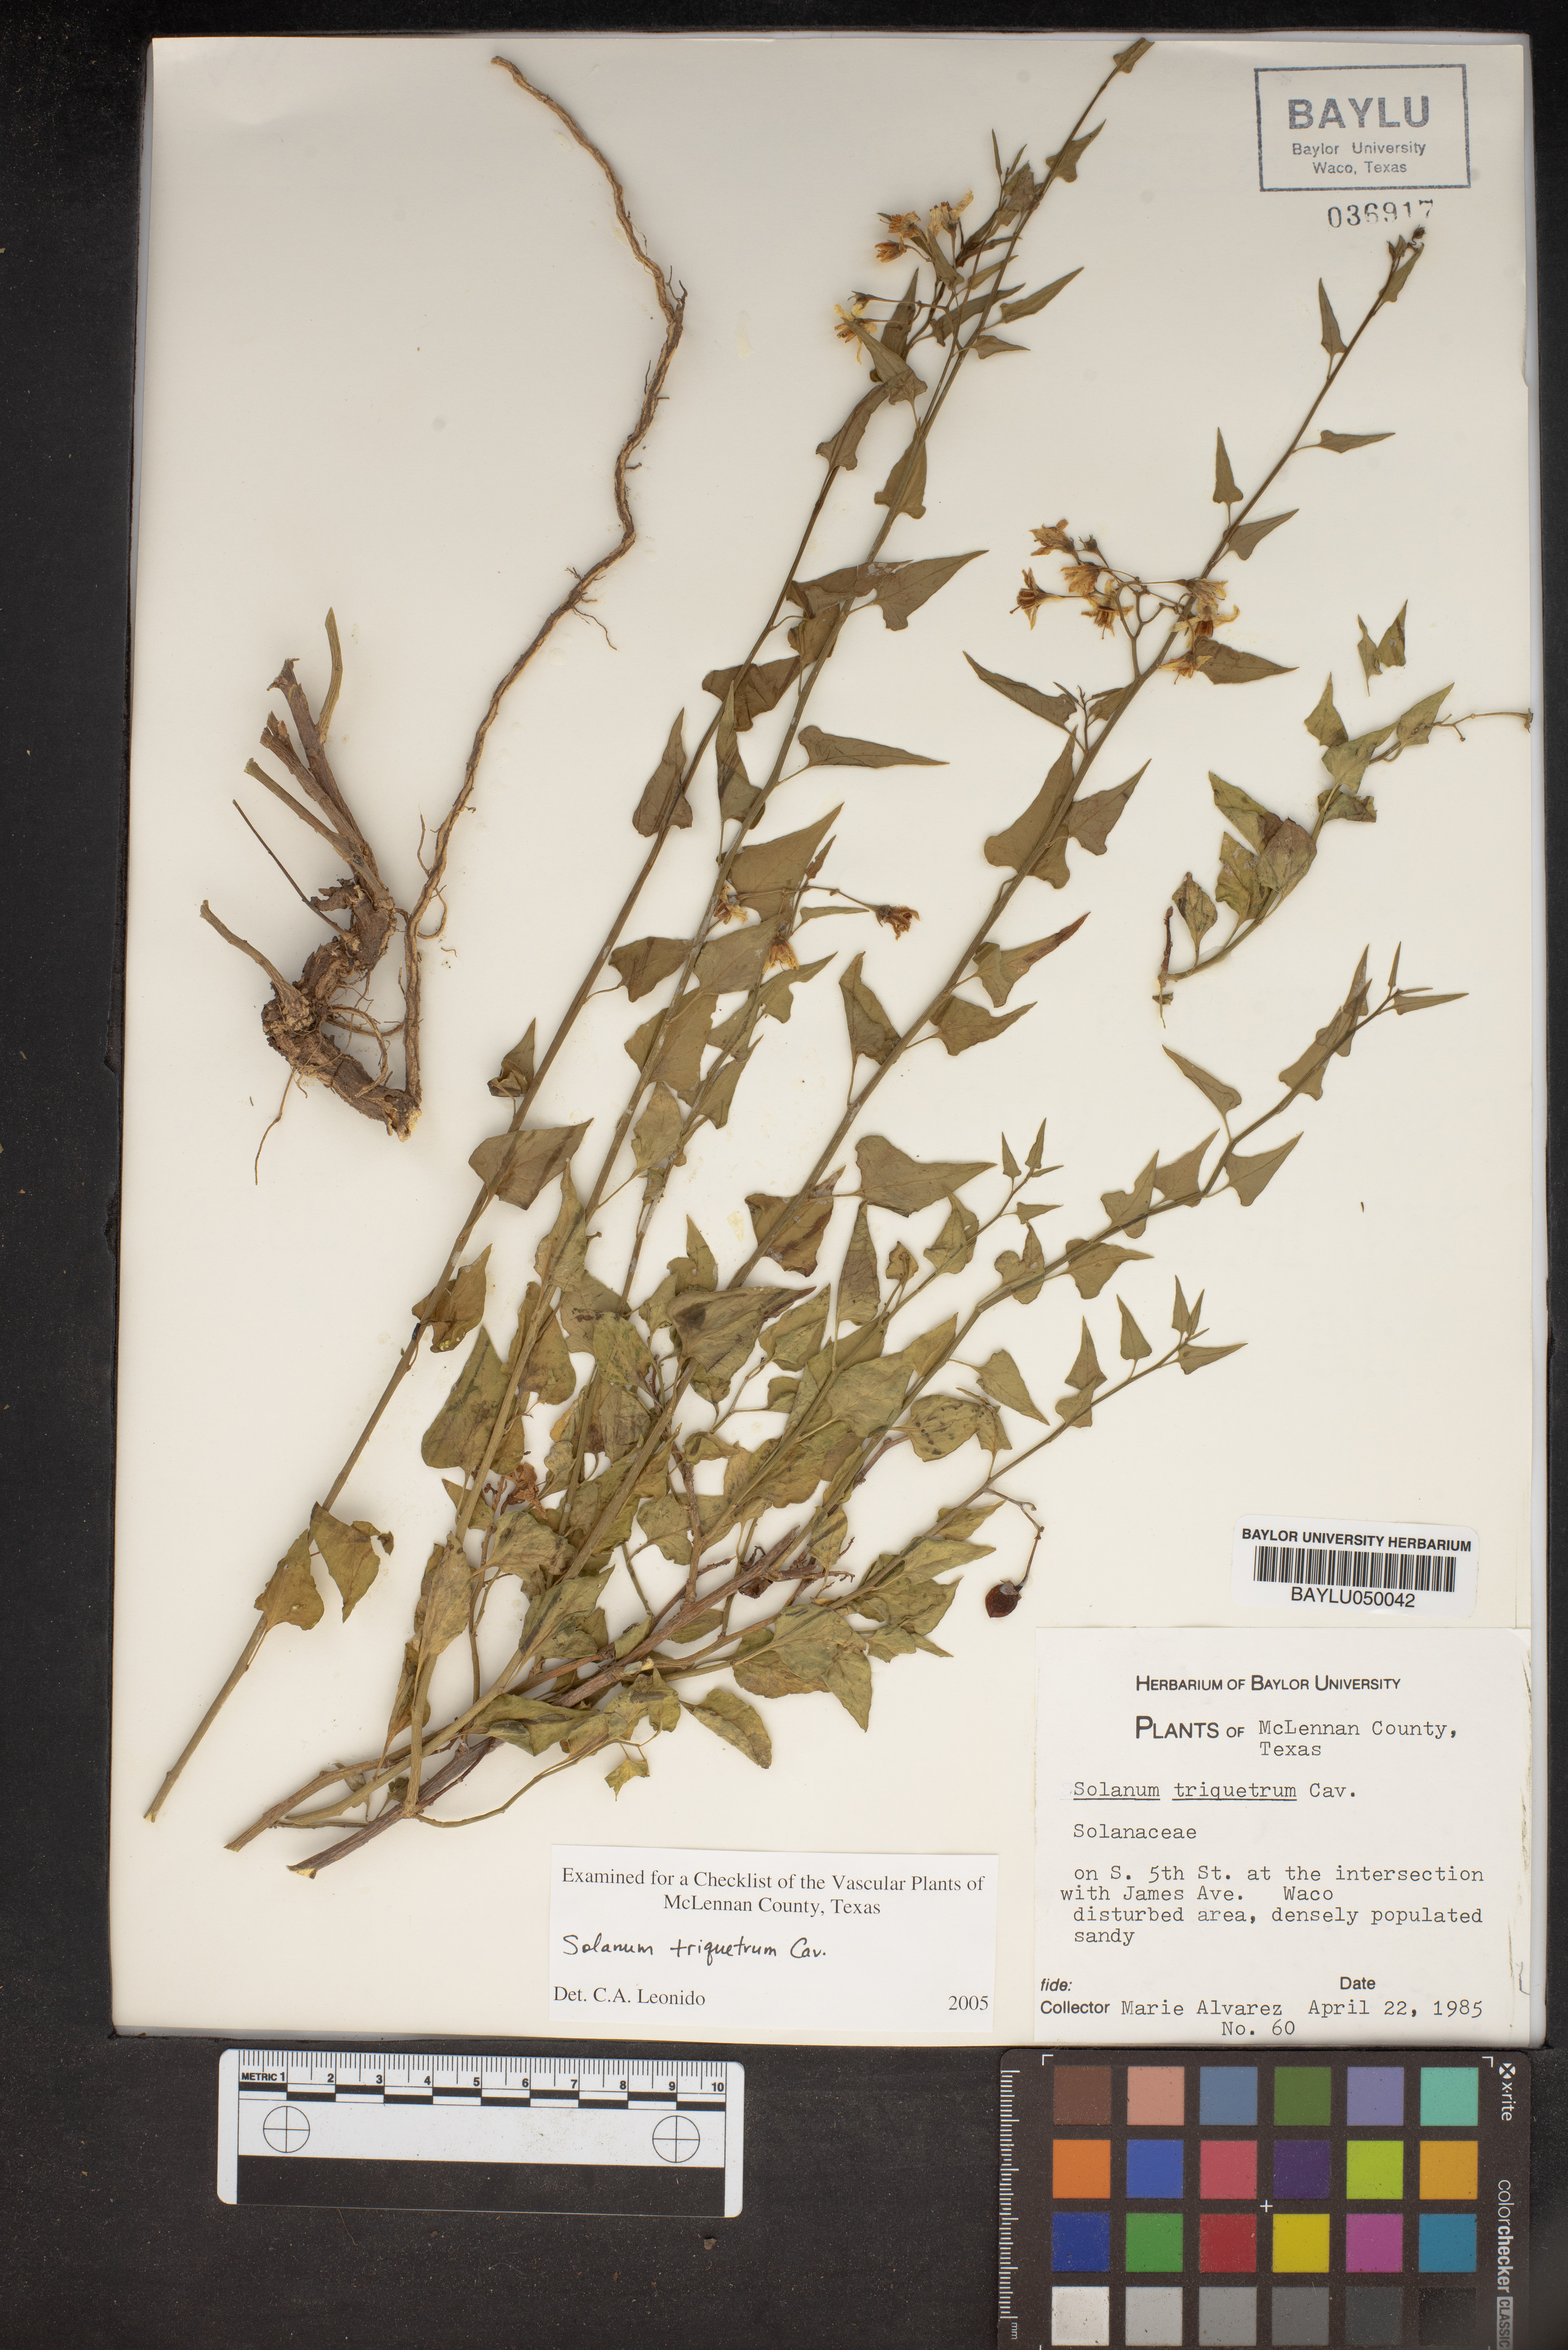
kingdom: Plantae
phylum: Tracheophyta
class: Magnoliopsida
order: Solanales
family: Solanaceae
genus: Solanum
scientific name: Solanum triquetrum
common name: Texas nightshade
